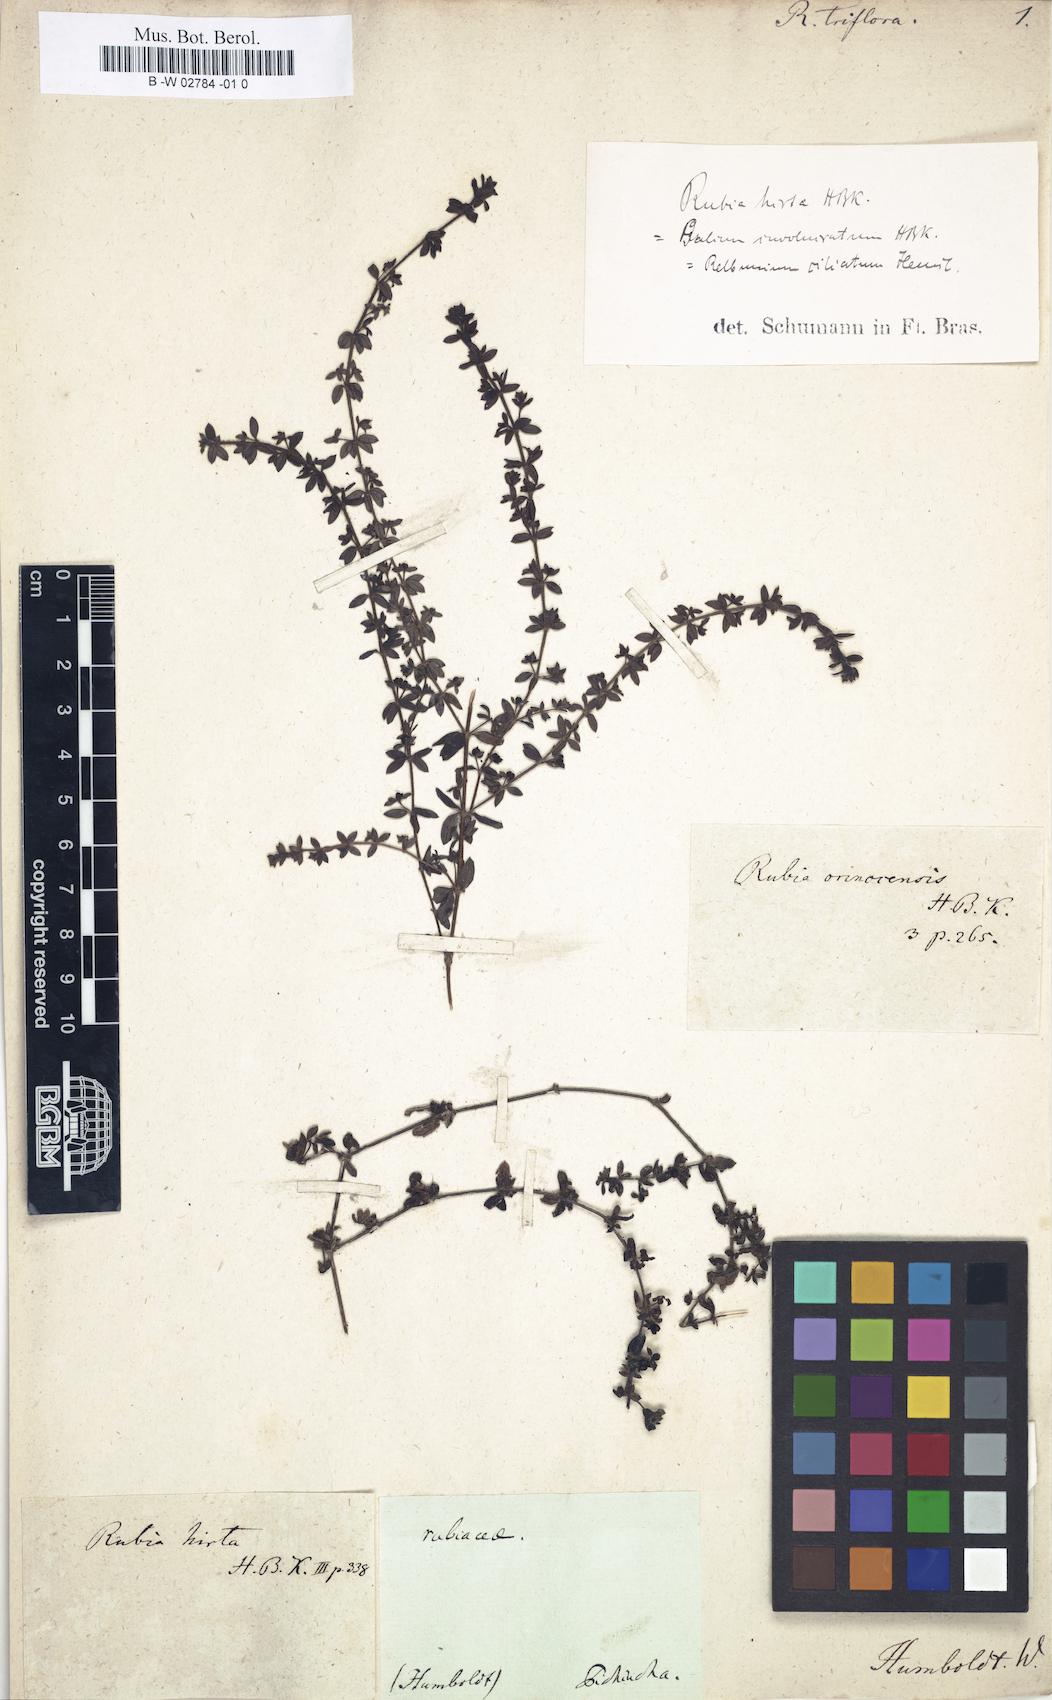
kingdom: Plantae
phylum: Tracheophyta
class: Magnoliopsida
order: Gentianales
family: Rubiaceae
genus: Galium
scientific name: Galium
